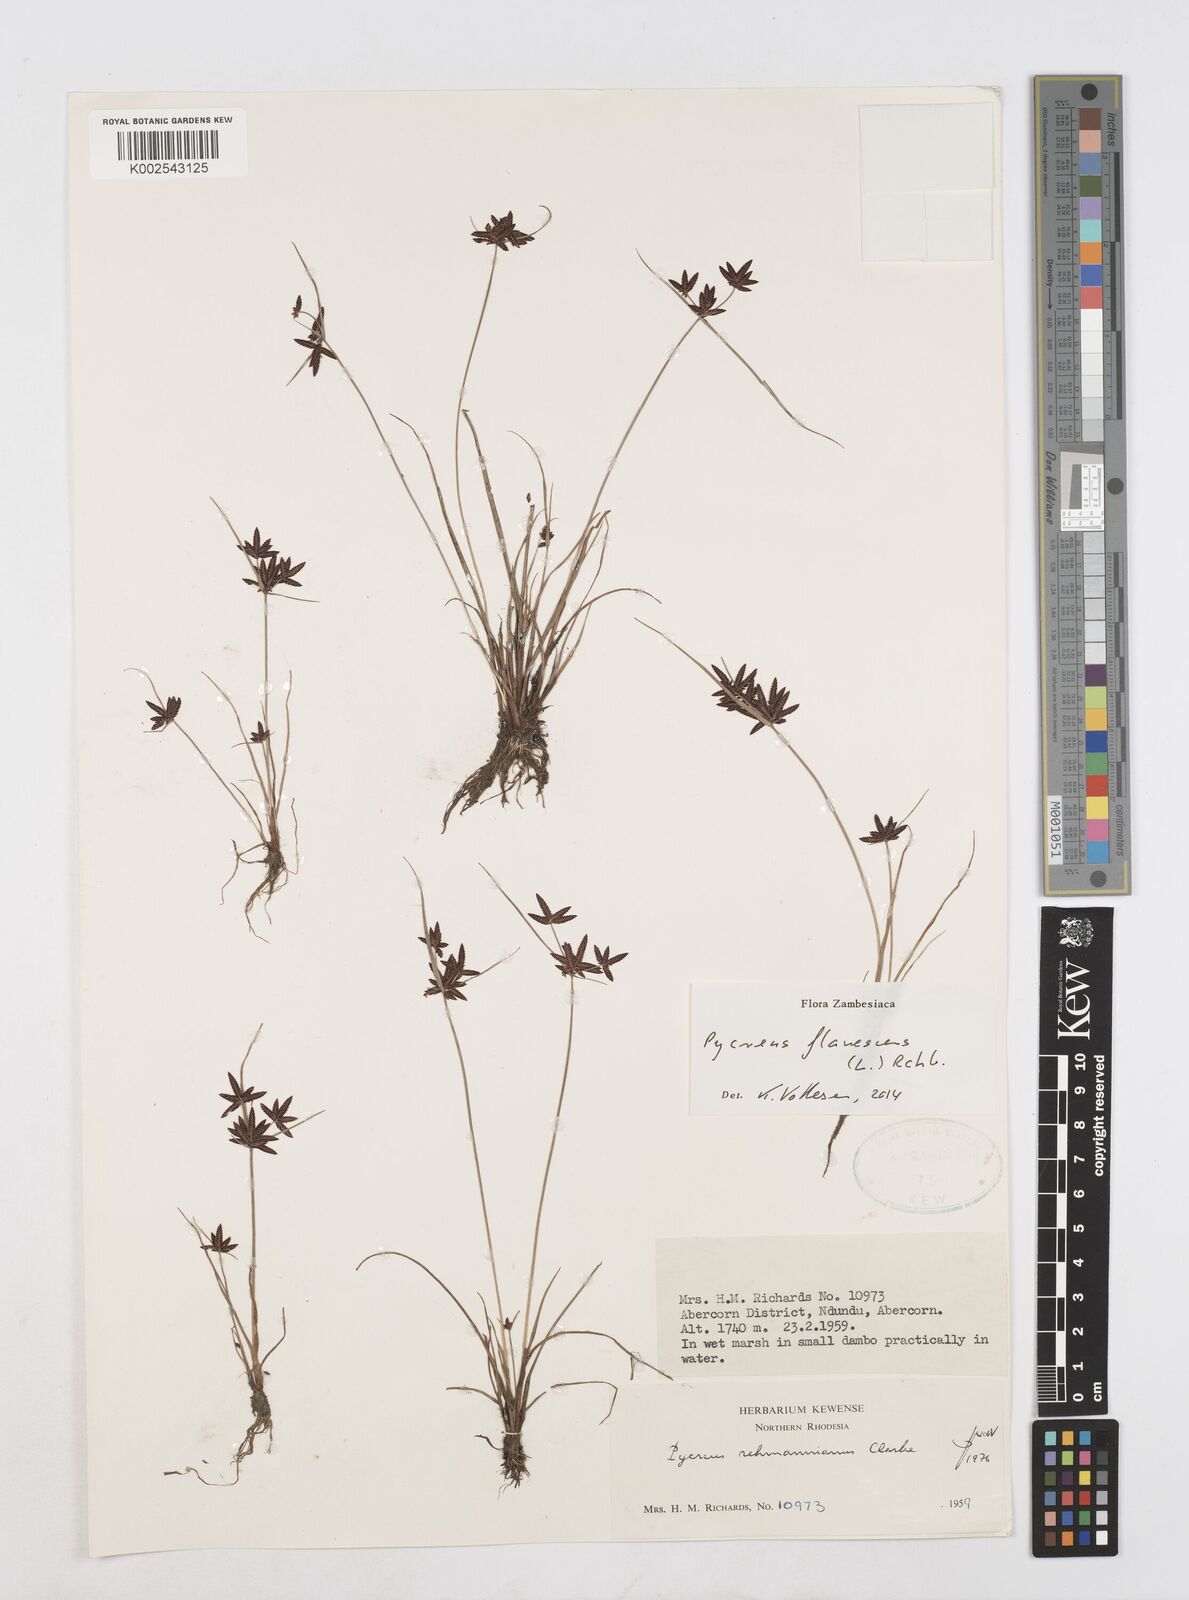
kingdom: Plantae
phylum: Tracheophyta
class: Liliopsida
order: Poales
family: Cyperaceae
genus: Cyperus
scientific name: Cyperus flavescens
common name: Yellow galingale
